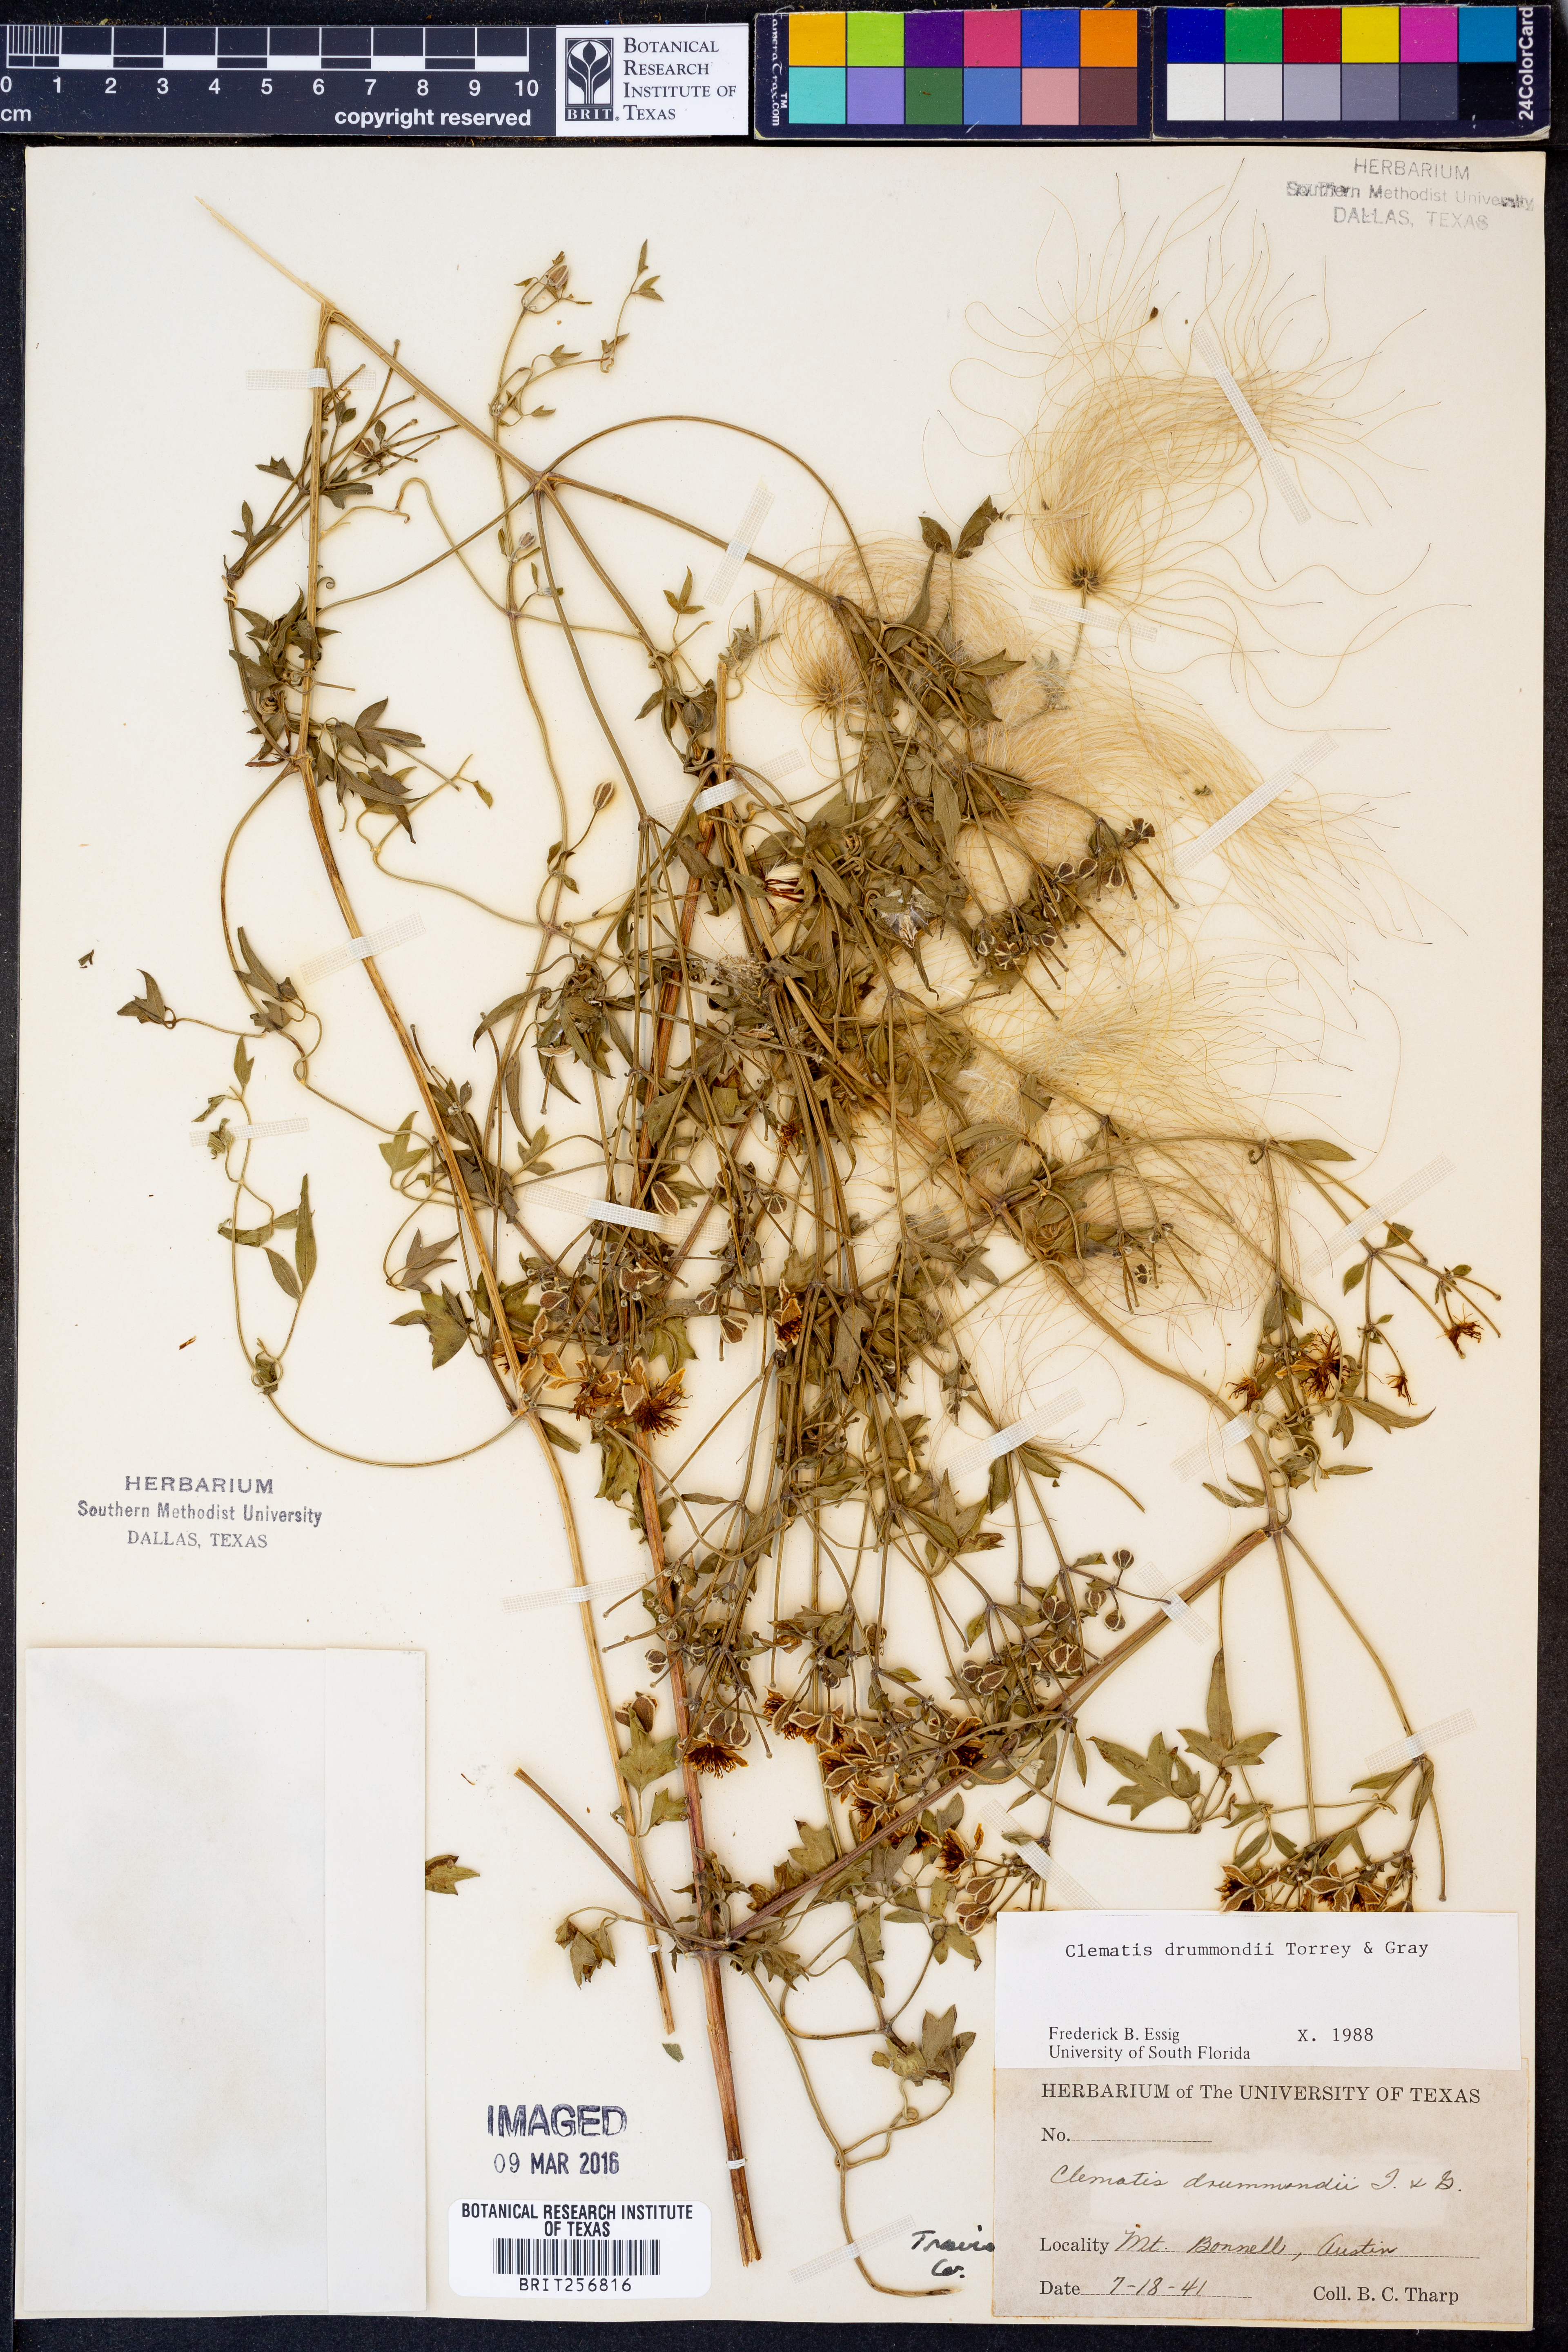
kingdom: Plantae
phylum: Tracheophyta
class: Magnoliopsida
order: Ranunculales
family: Ranunculaceae
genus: Clematis
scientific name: Clematis drummondii
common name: Texas virgin's bower
